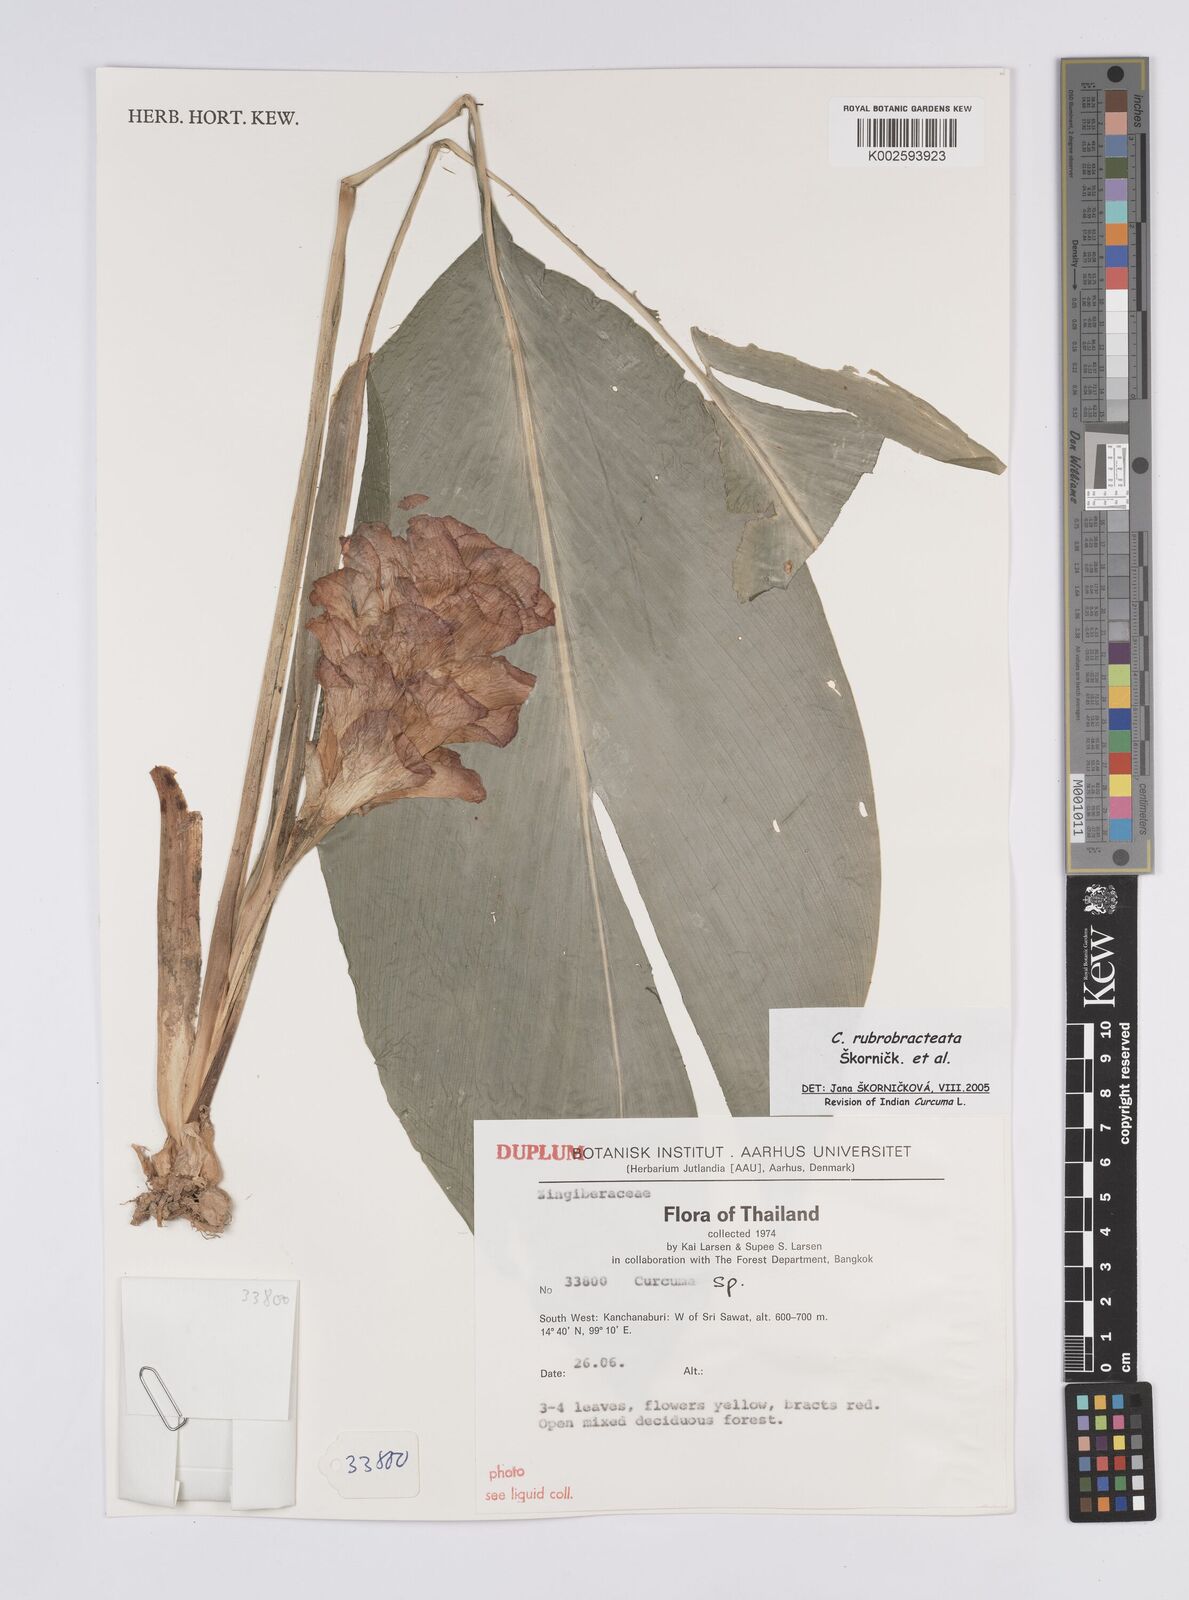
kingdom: Plantae
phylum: Tracheophyta
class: Liliopsida
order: Zingiberales
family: Zingiberaceae
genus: Curcuma
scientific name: Curcuma rubrobracteata
